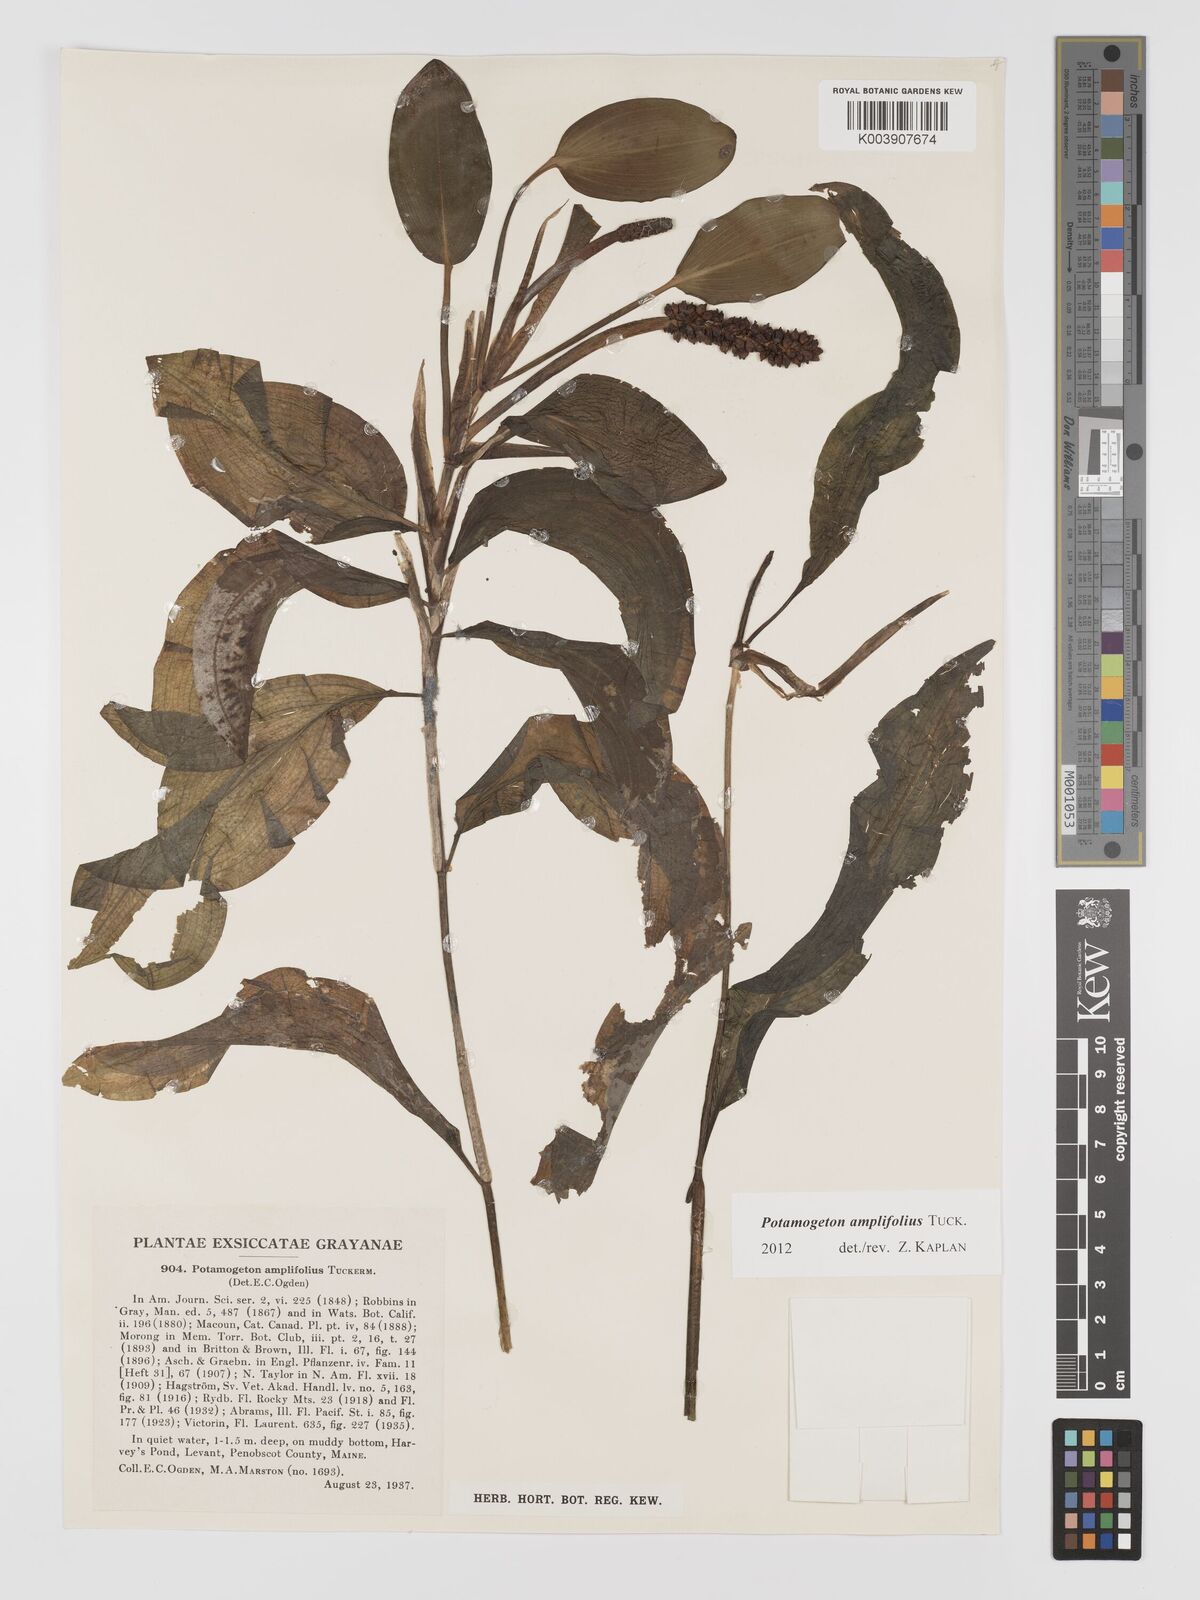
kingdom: Plantae
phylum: Tracheophyta
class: Liliopsida
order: Alismatales
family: Potamogetonaceae
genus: Potamogeton
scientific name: Potamogeton amplifolius
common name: Broad-leaved pondweed
